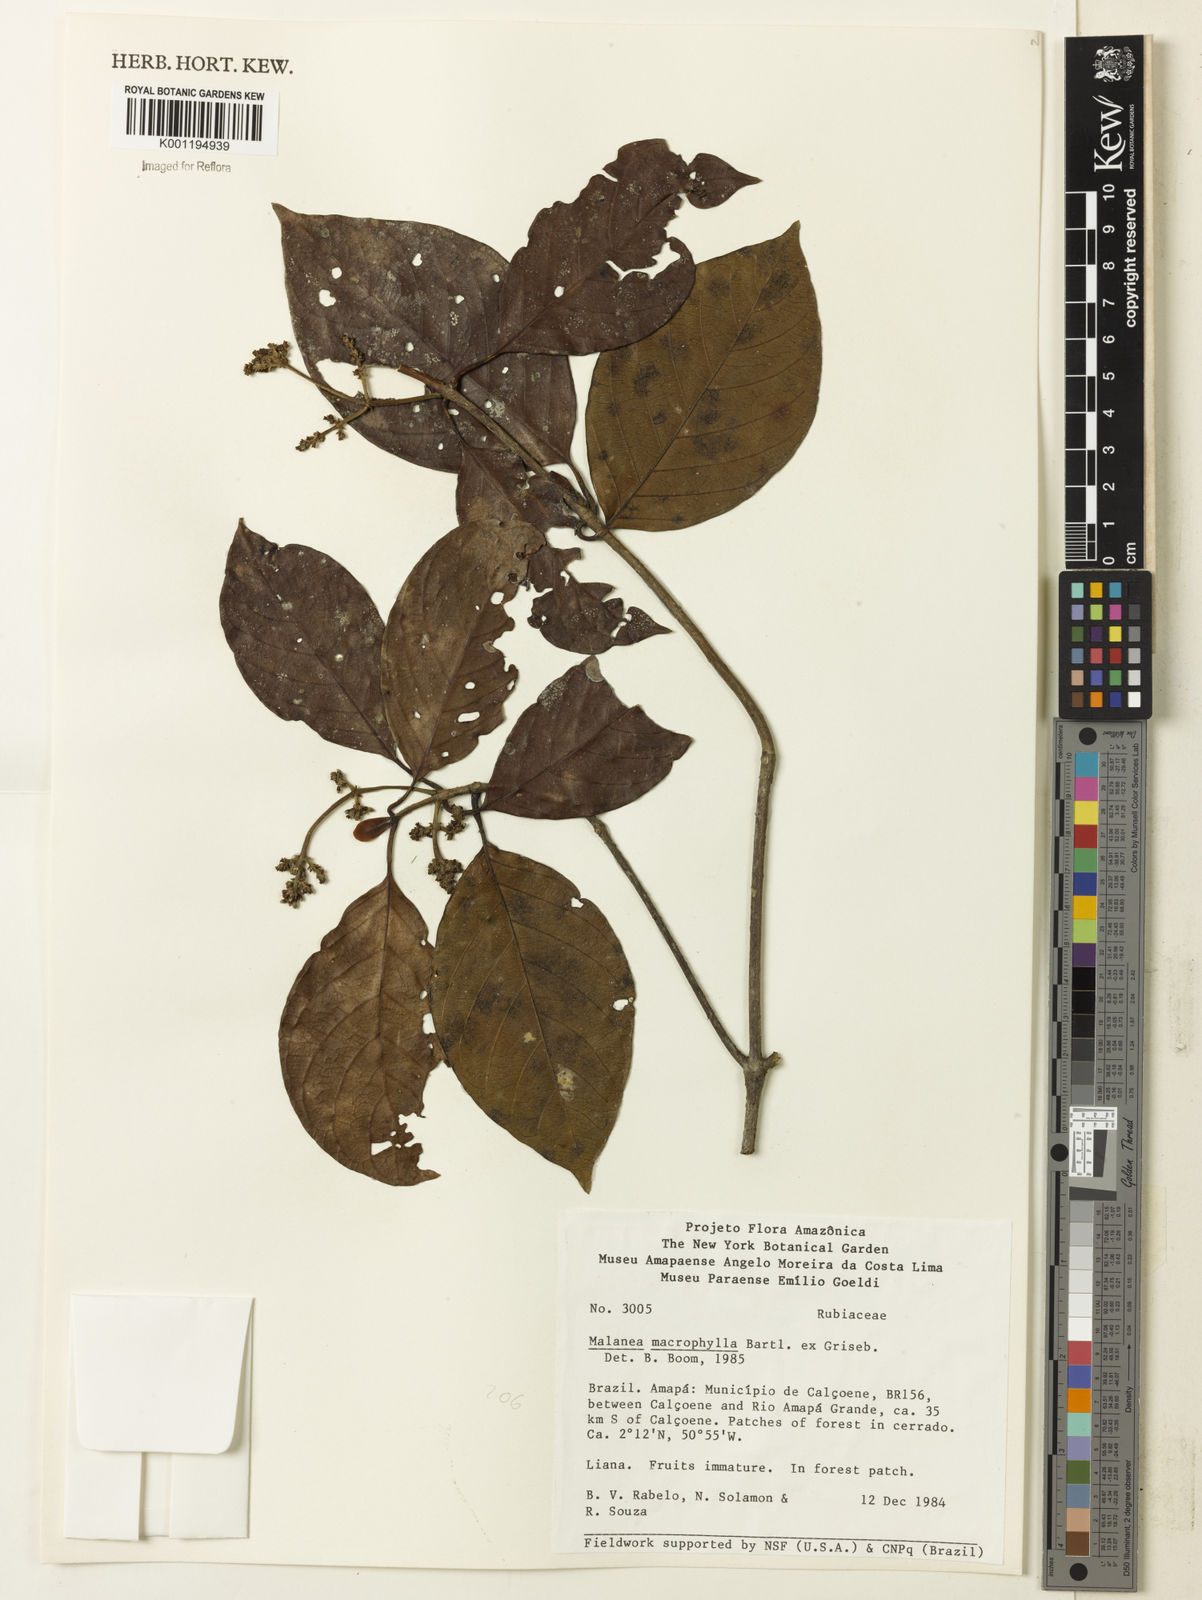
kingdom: Plantae
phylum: Tracheophyta
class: Magnoliopsida
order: Gentianales
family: Rubiaceae
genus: Malanea
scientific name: Malanea glabra
